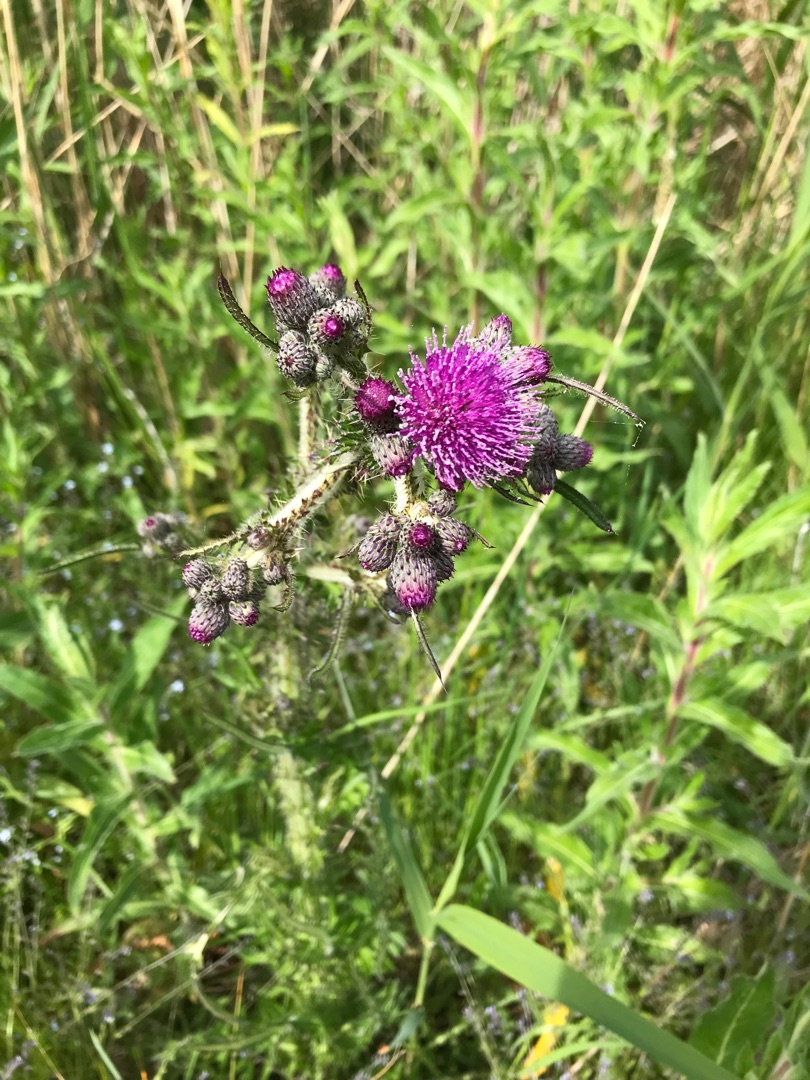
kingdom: Plantae
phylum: Tracheophyta
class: Magnoliopsida
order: Asterales
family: Asteraceae
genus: Cirsium
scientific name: Cirsium palustre
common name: Kær-tidsel
